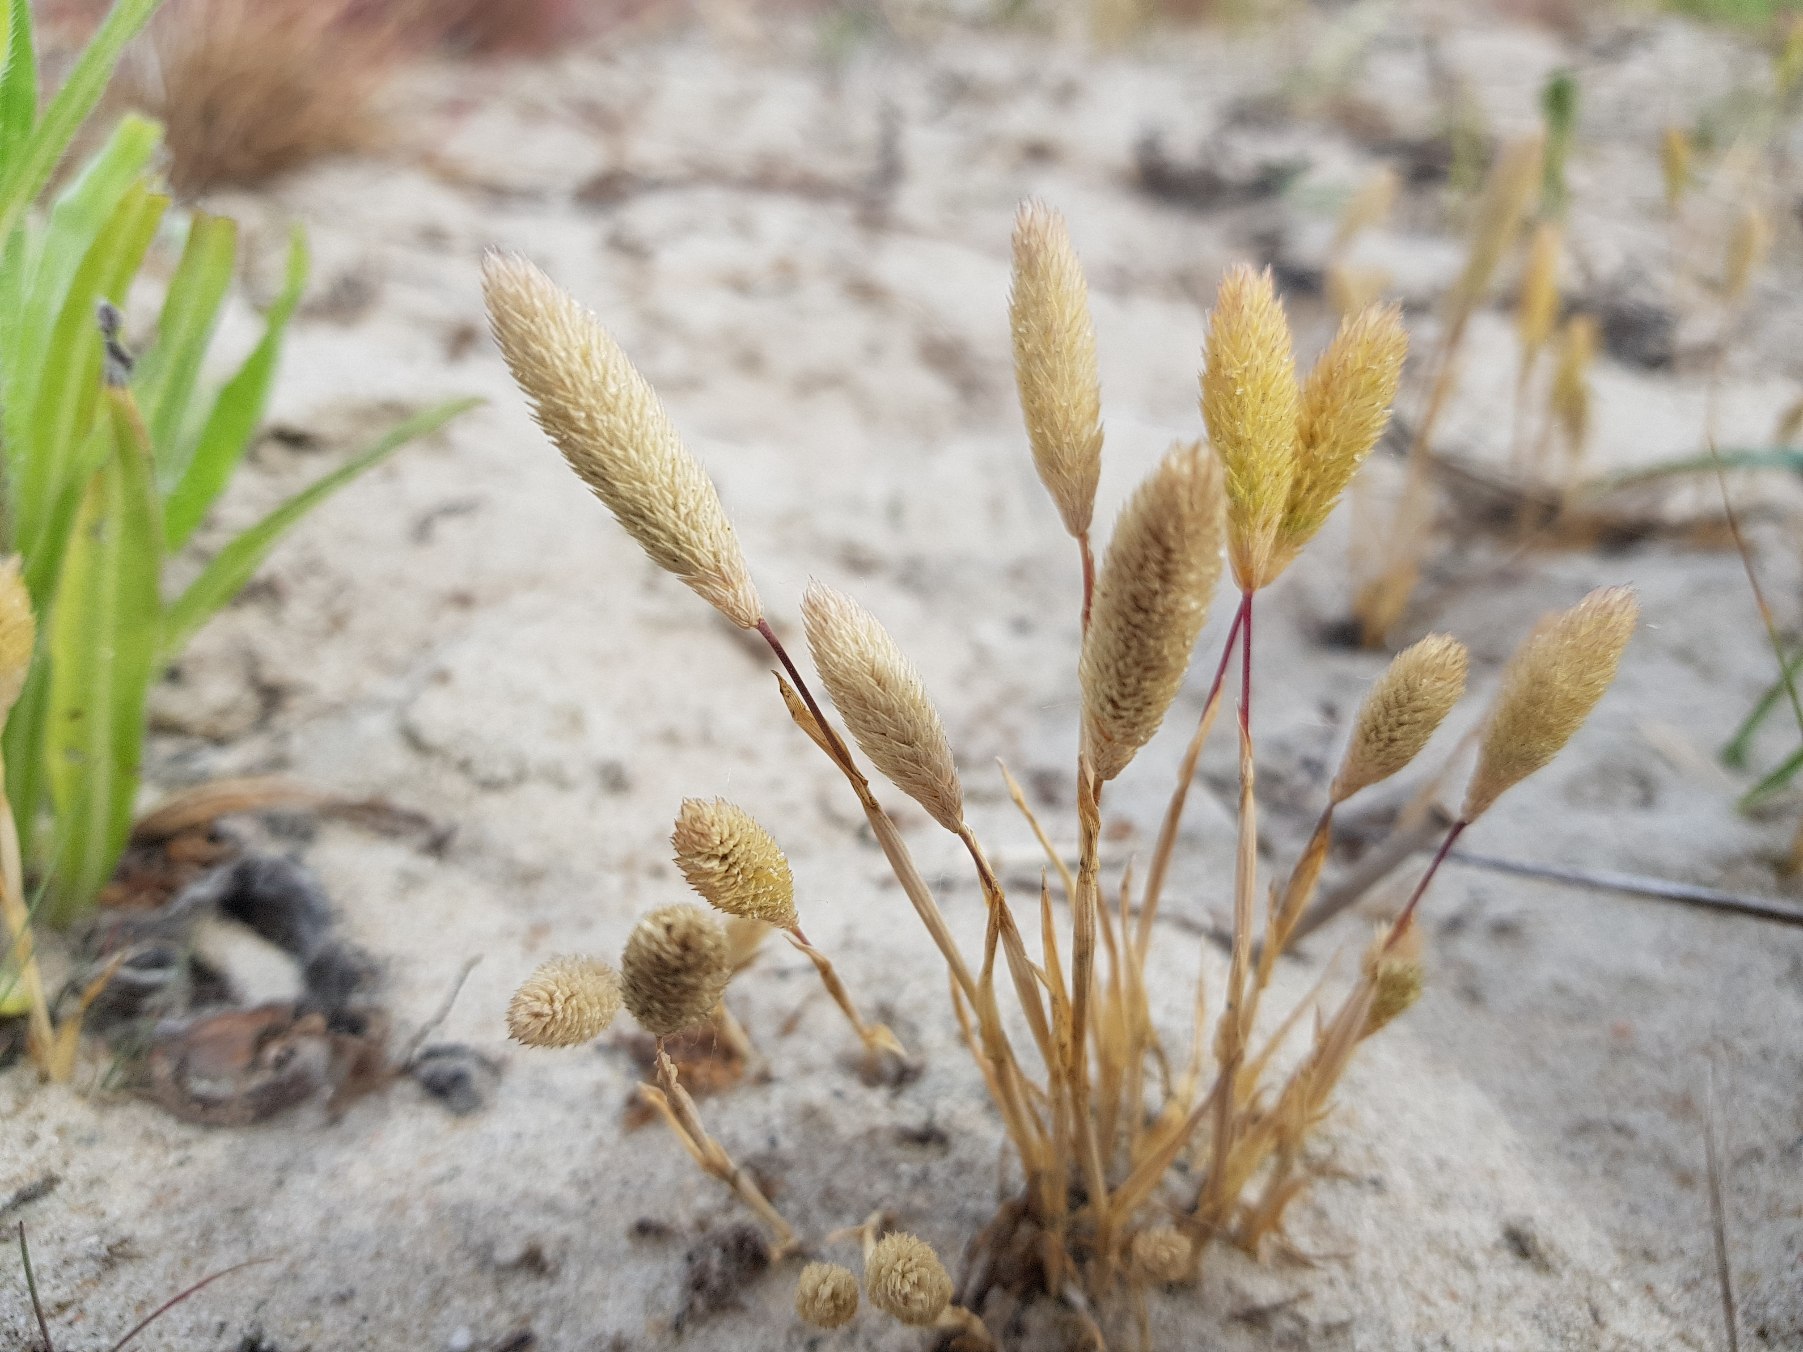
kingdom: Plantae
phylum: Tracheophyta
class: Liliopsida
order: Poales
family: Poaceae
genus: Phleum
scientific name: Phleum arenarium
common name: Sand-rottehale
